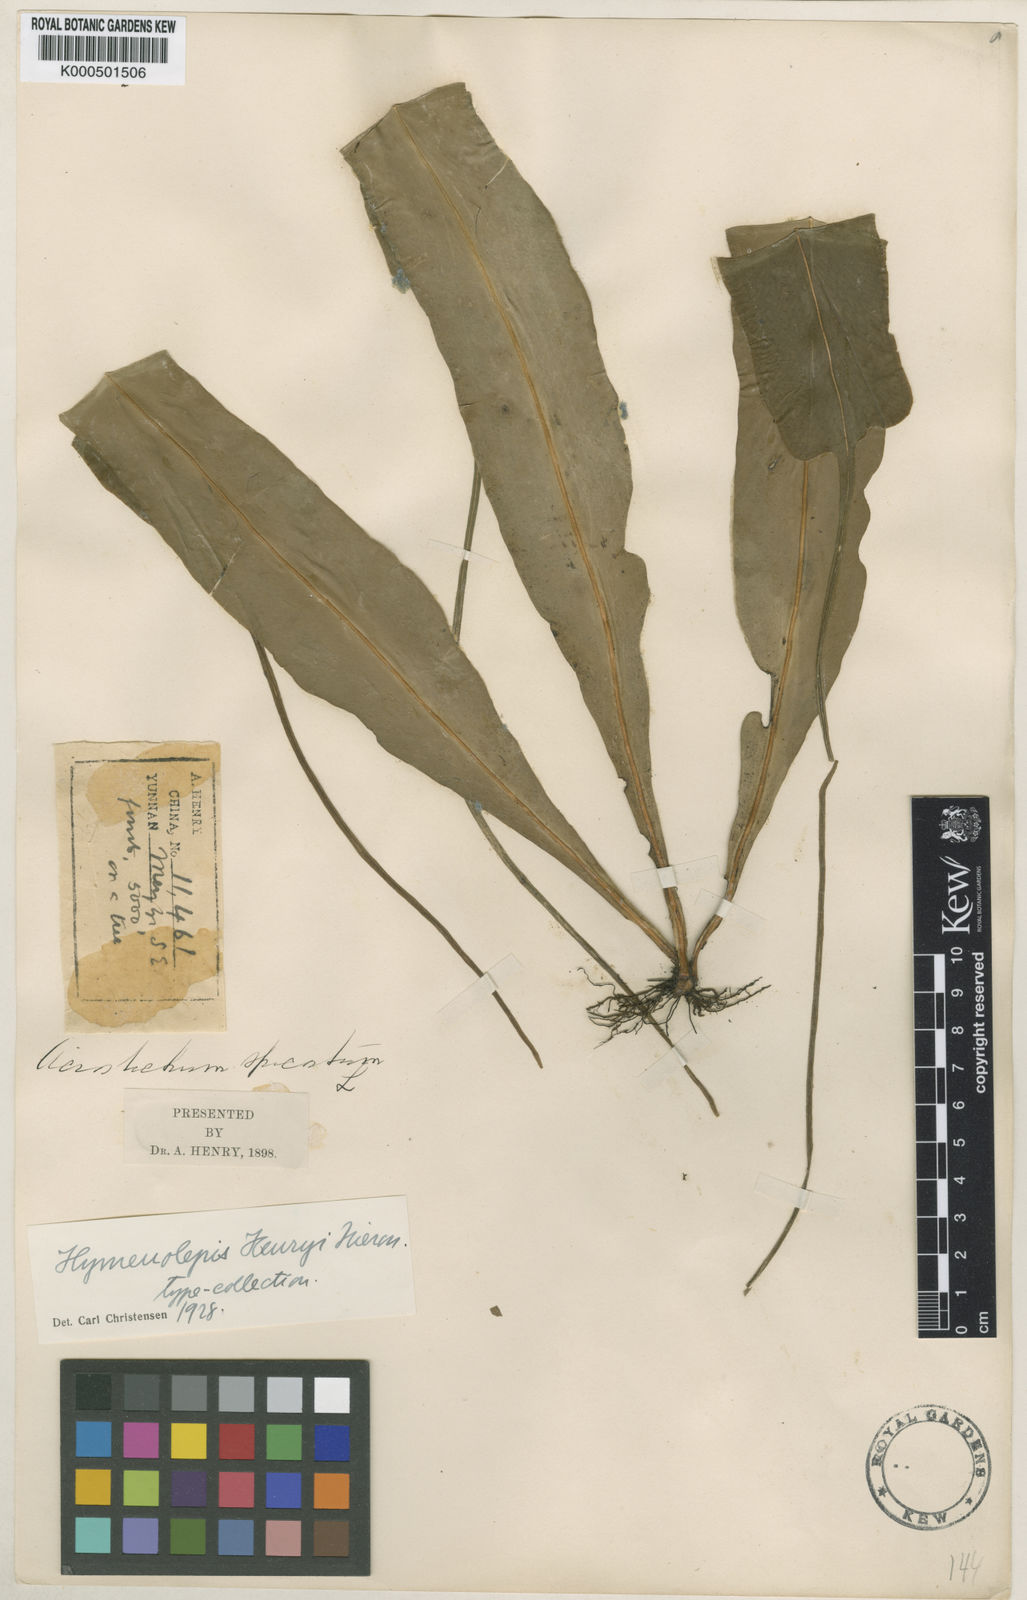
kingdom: Plantae
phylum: Tracheophyta
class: Polypodiopsida
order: Polypodiales
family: Polypodiaceae
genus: Lepisorus
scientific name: Lepisorus henryi
